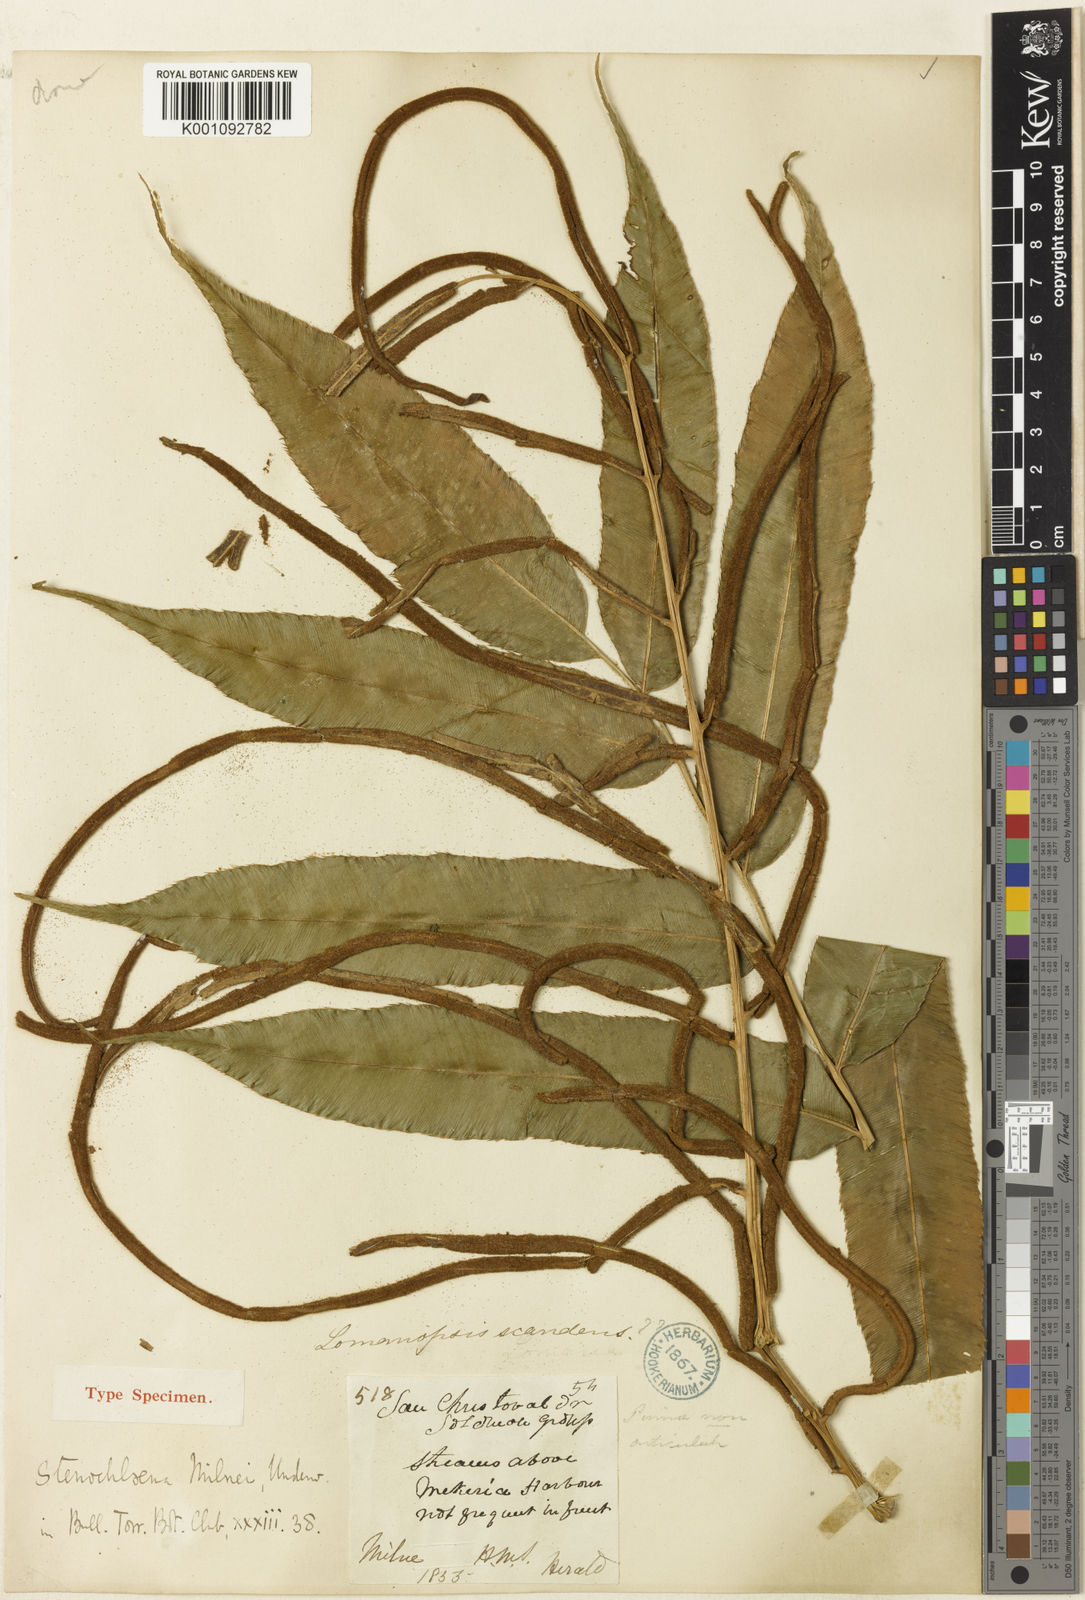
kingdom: Plantae
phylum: Tracheophyta
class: Polypodiopsida
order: Polypodiales
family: Blechnaceae
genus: Stenochlaena
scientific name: Stenochlaena milnei
